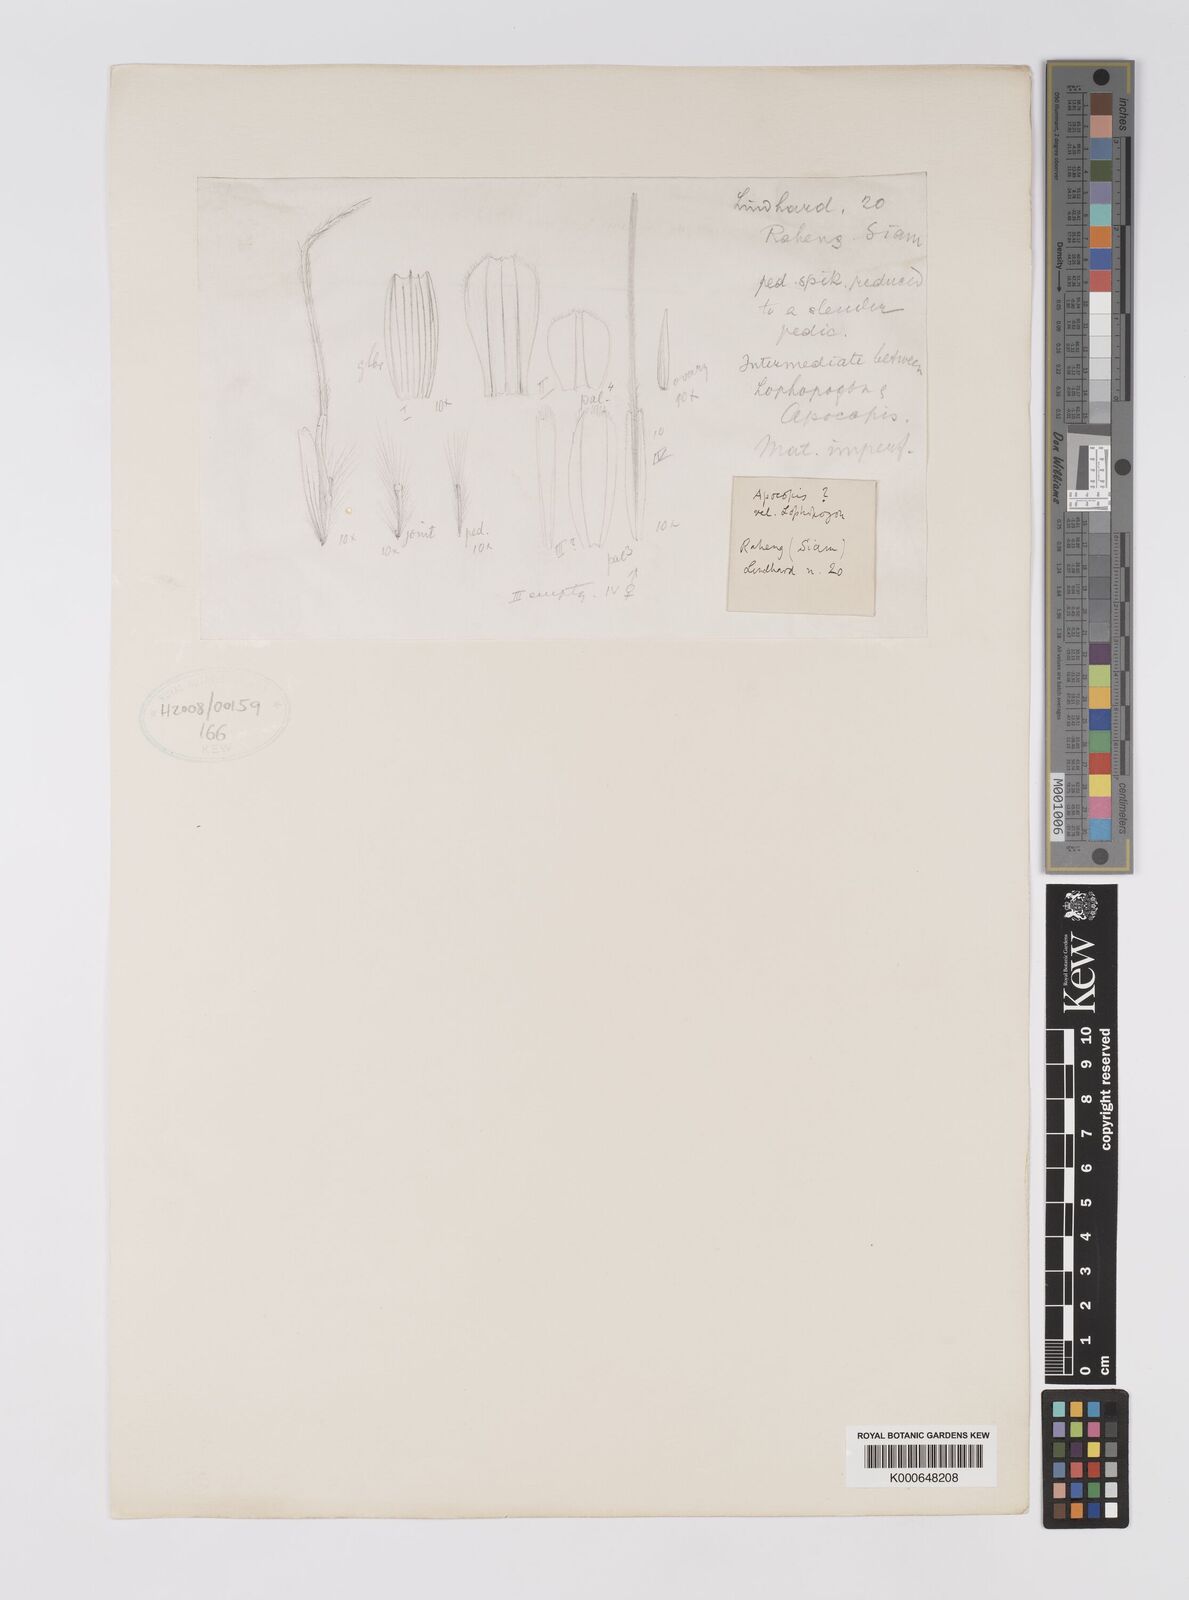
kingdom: Plantae
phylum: Tracheophyta
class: Liliopsida
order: Poales
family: Poaceae
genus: Apocopis
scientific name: Apocopis siamensis
